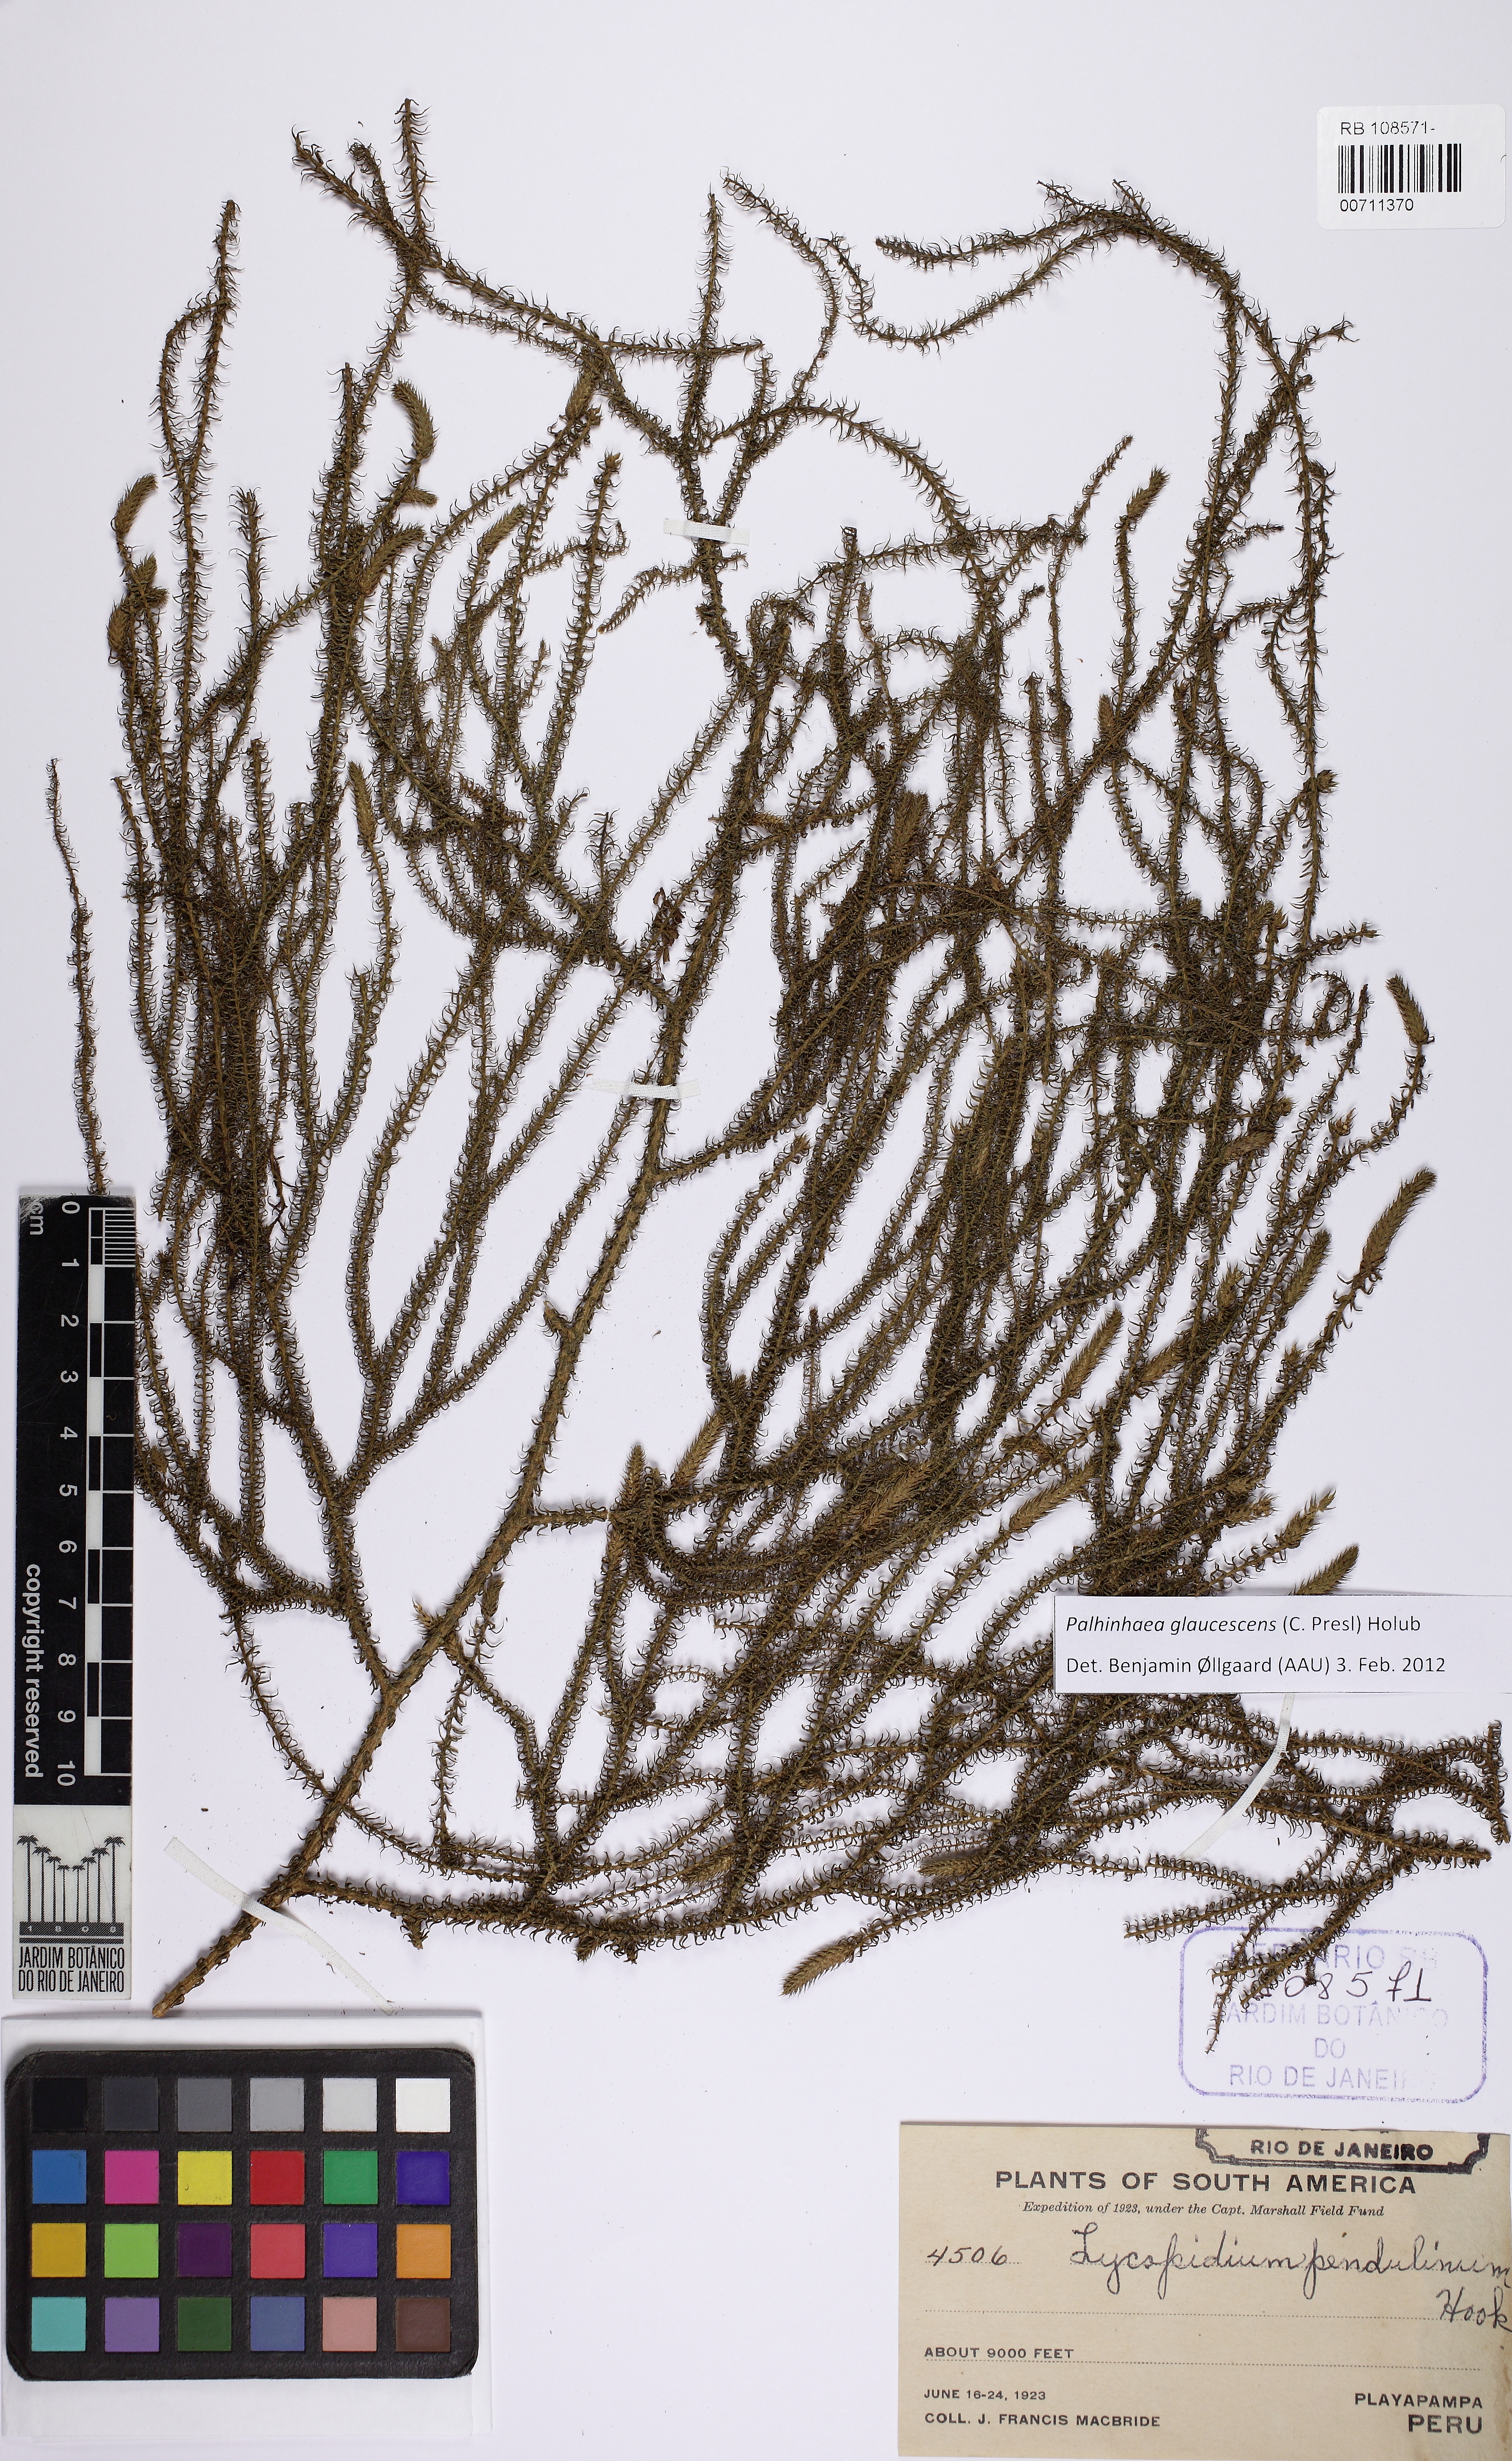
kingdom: Plantae
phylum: Tracheophyta
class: Lycopodiopsida
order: Lycopodiales
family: Lycopodiaceae
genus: Palhinhaea
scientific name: Palhinhaea cernua
